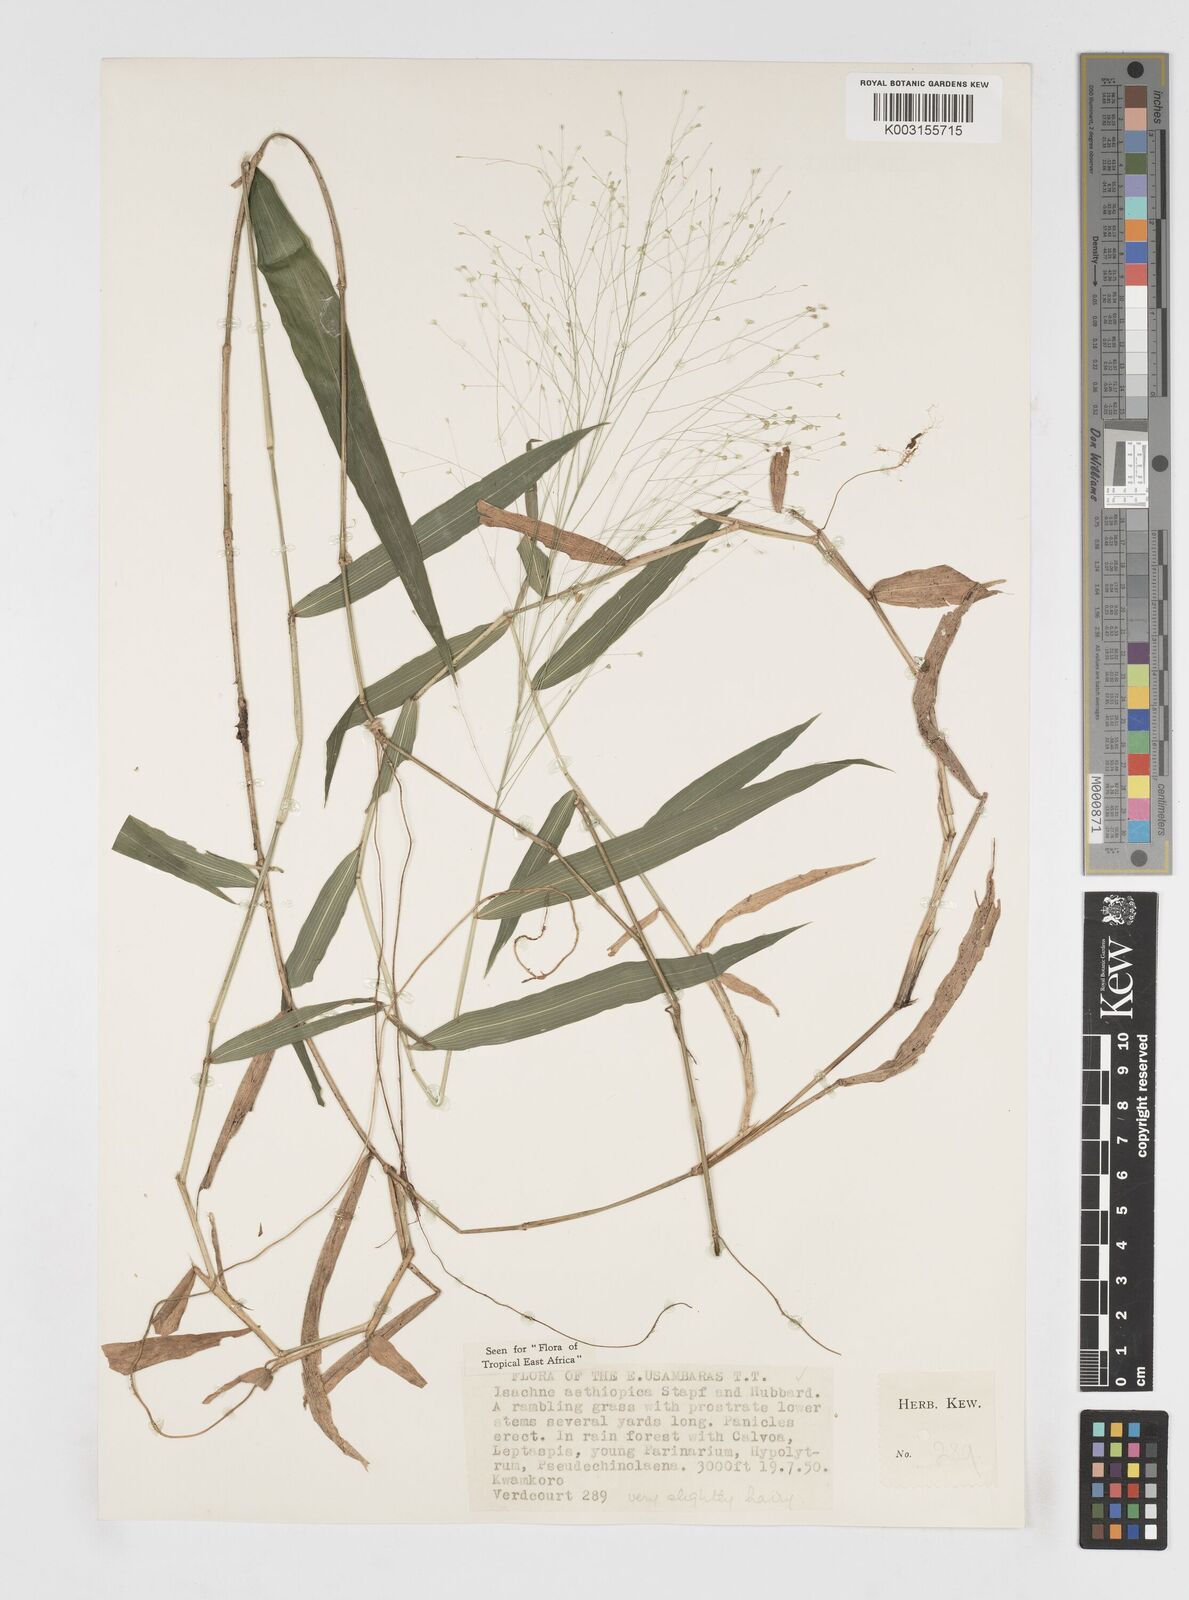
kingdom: Plantae
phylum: Tracheophyta
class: Liliopsida
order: Poales
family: Poaceae
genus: Isachne
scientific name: Isachne mauritiana
